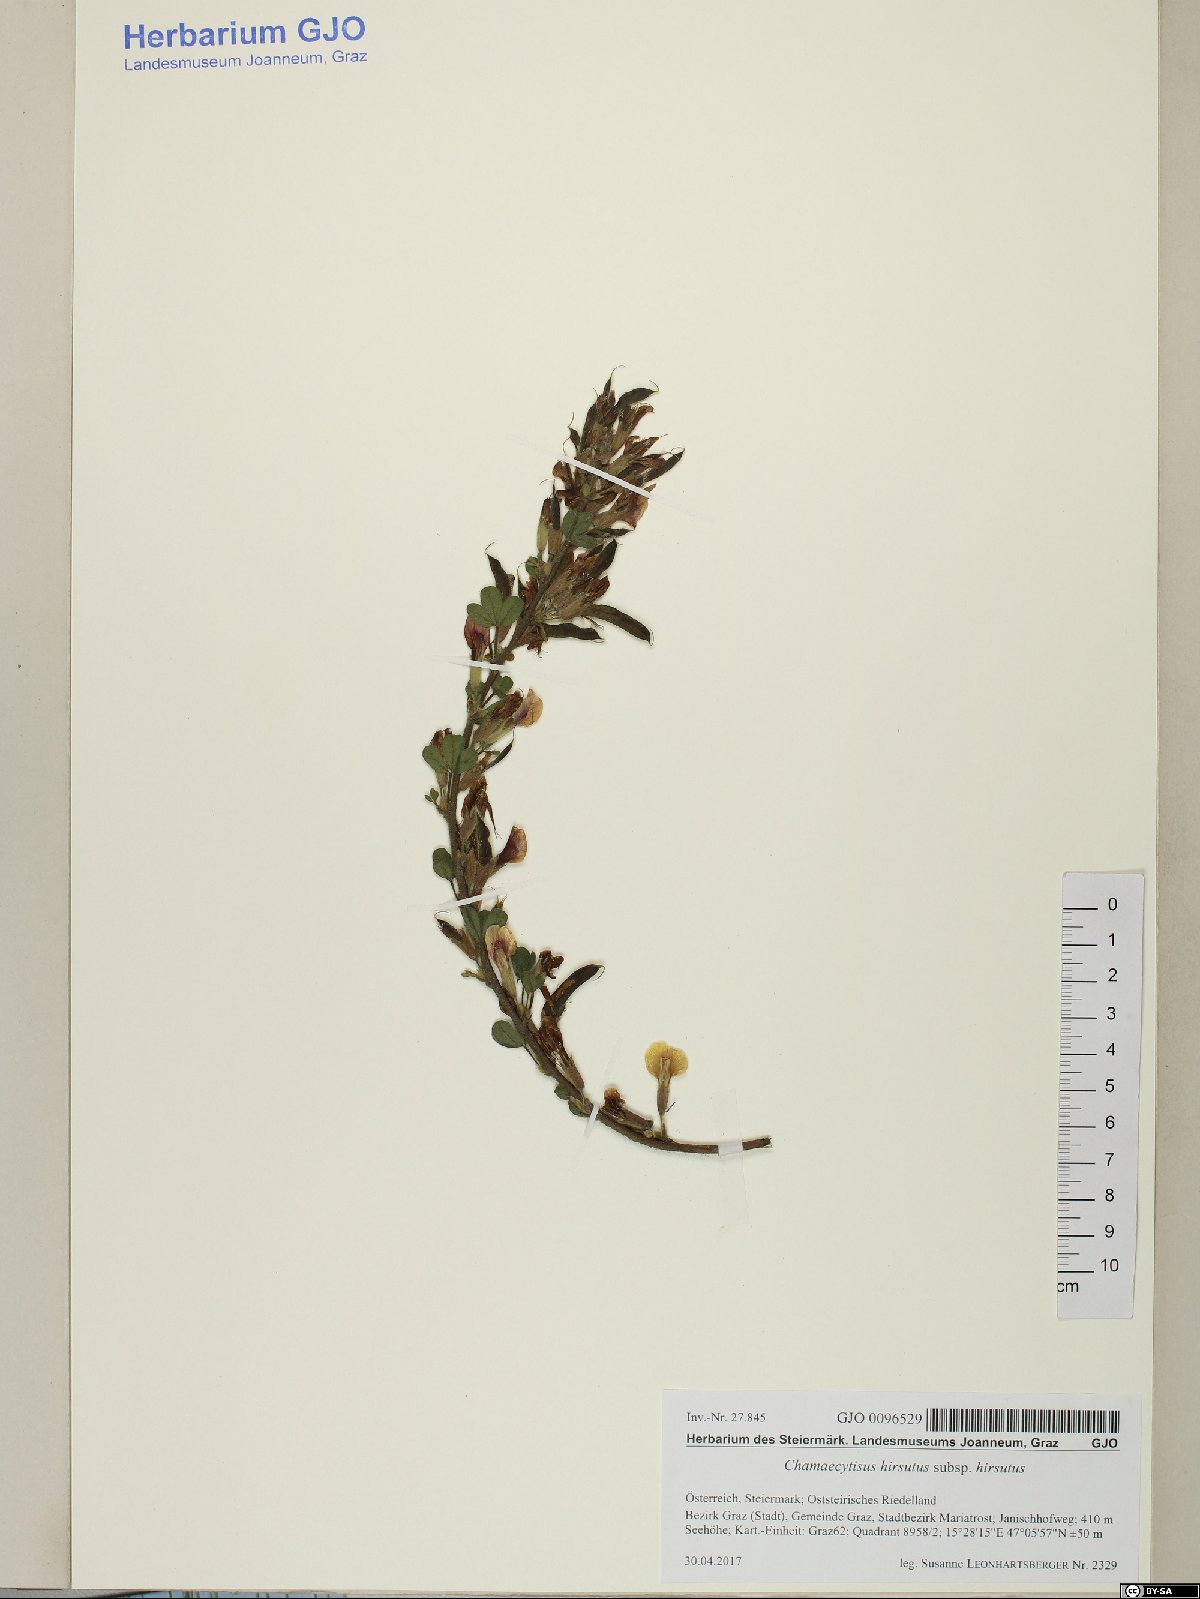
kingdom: Plantae
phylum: Tracheophyta
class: Magnoliopsida
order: Fabales
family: Fabaceae
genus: Chamaecytisus
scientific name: Chamaecytisus hirsutus
